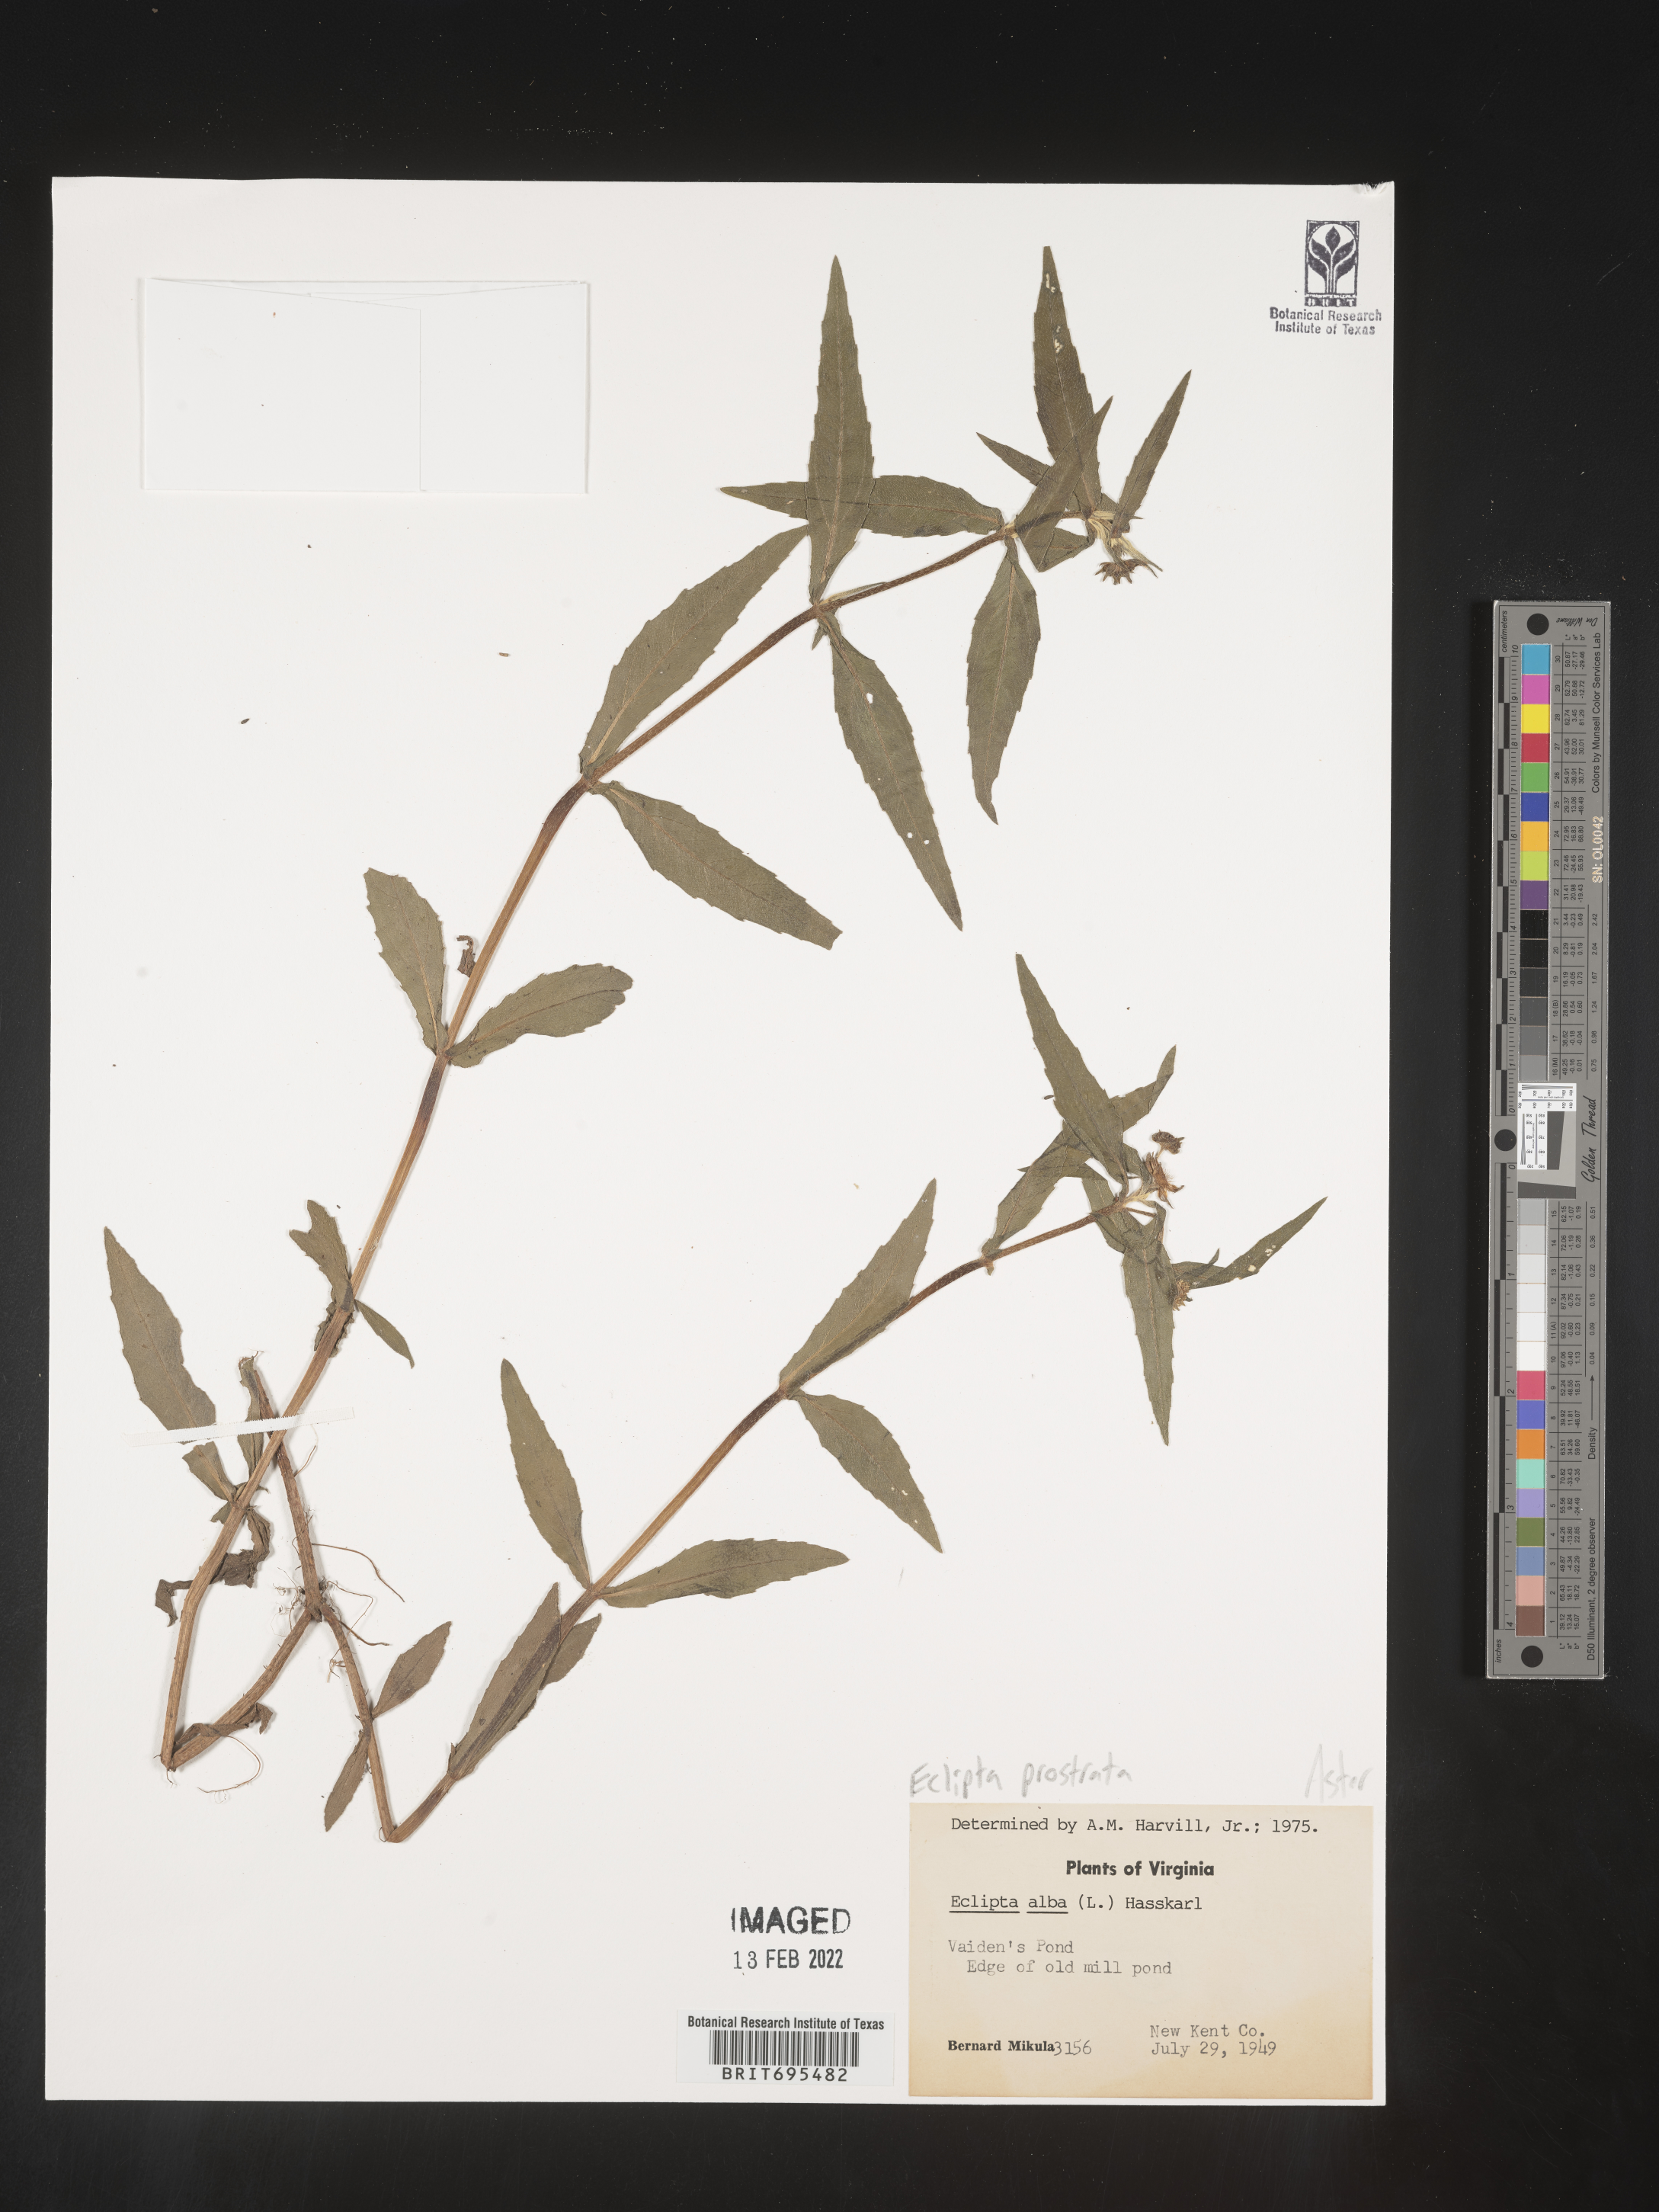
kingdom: Plantae
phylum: Tracheophyta
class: Magnoliopsida
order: Asterales
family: Asteraceae
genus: Eclipta
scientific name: Eclipta prostrata
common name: False daisy
